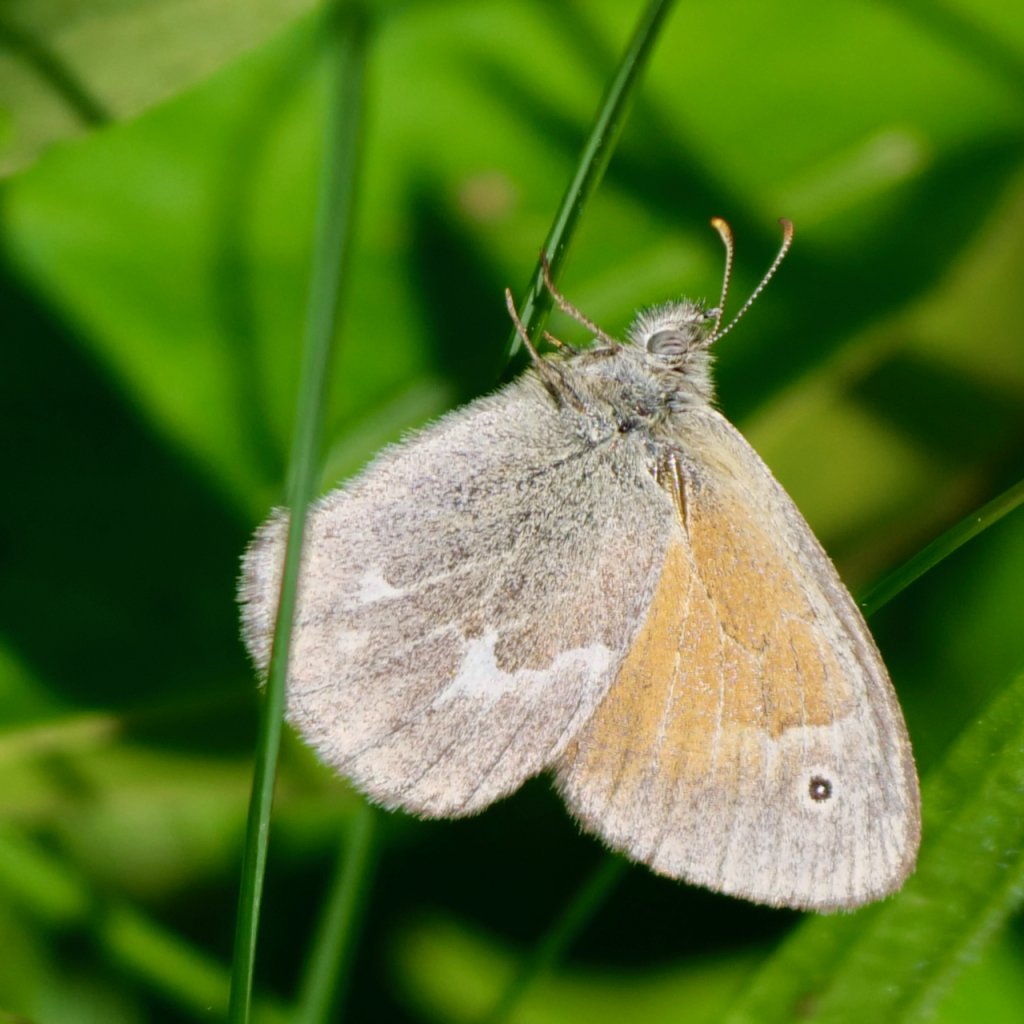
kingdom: Animalia
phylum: Arthropoda
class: Insecta
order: Lepidoptera
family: Nymphalidae
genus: Coenonympha
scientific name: Coenonympha tullia
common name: Large Heath
